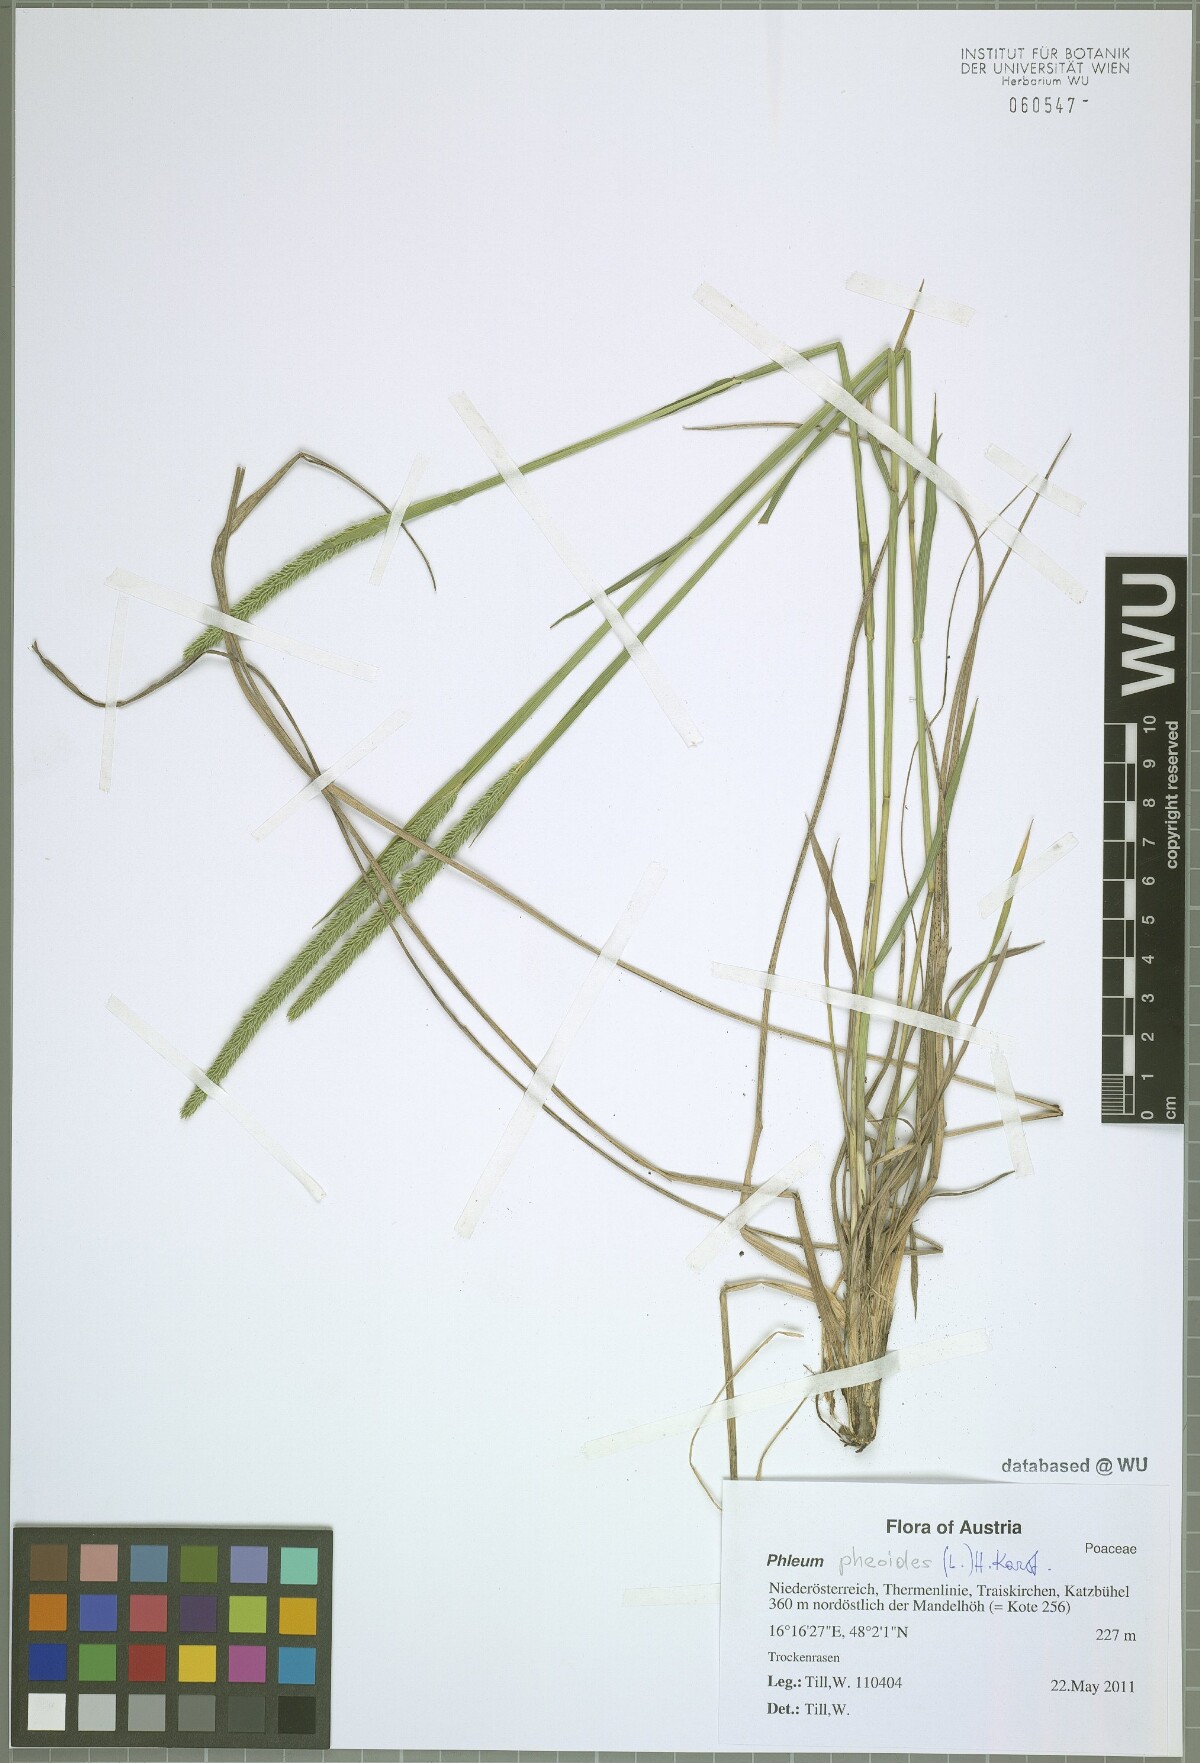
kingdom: Plantae
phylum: Tracheophyta
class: Liliopsida
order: Poales
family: Poaceae
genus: Phleum
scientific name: Phleum phleoides
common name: Purple-stem cat's-tail
